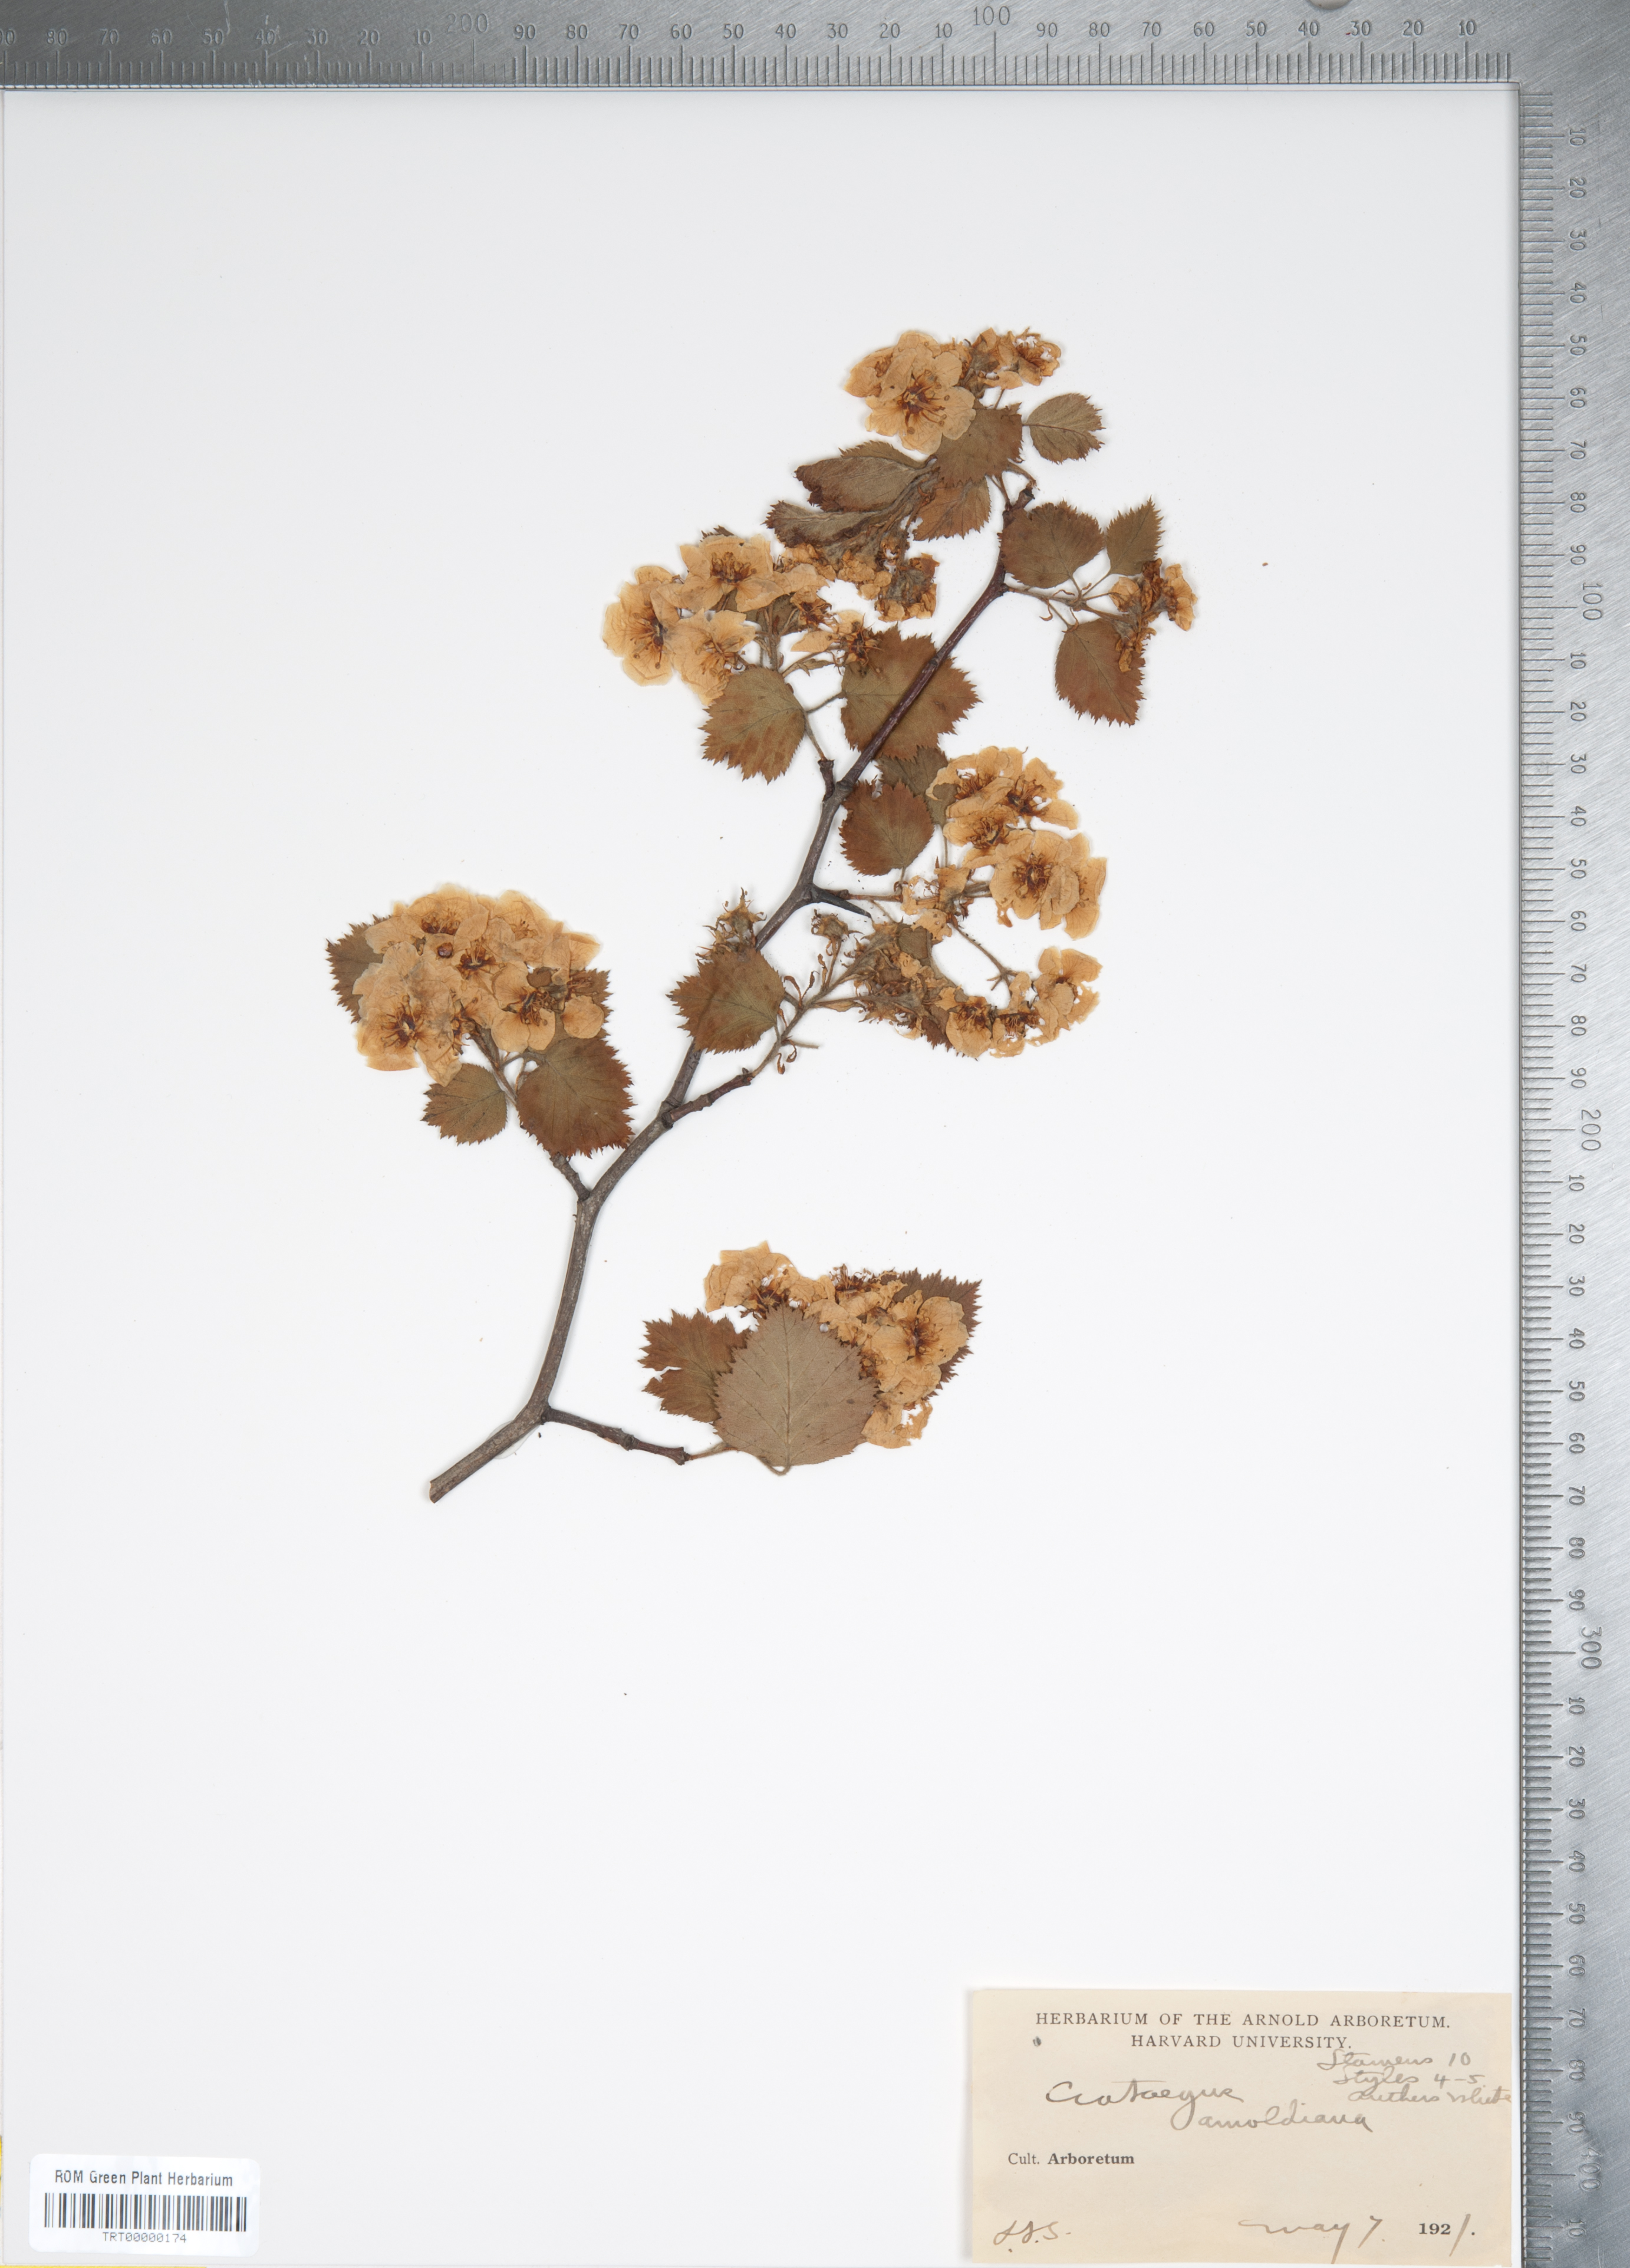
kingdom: Plantae
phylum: Tracheophyta
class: Magnoliopsida
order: Rosales
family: Rosaceae
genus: Crataegus
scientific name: Crataegus holmesiana
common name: Holmes' hawthorn
